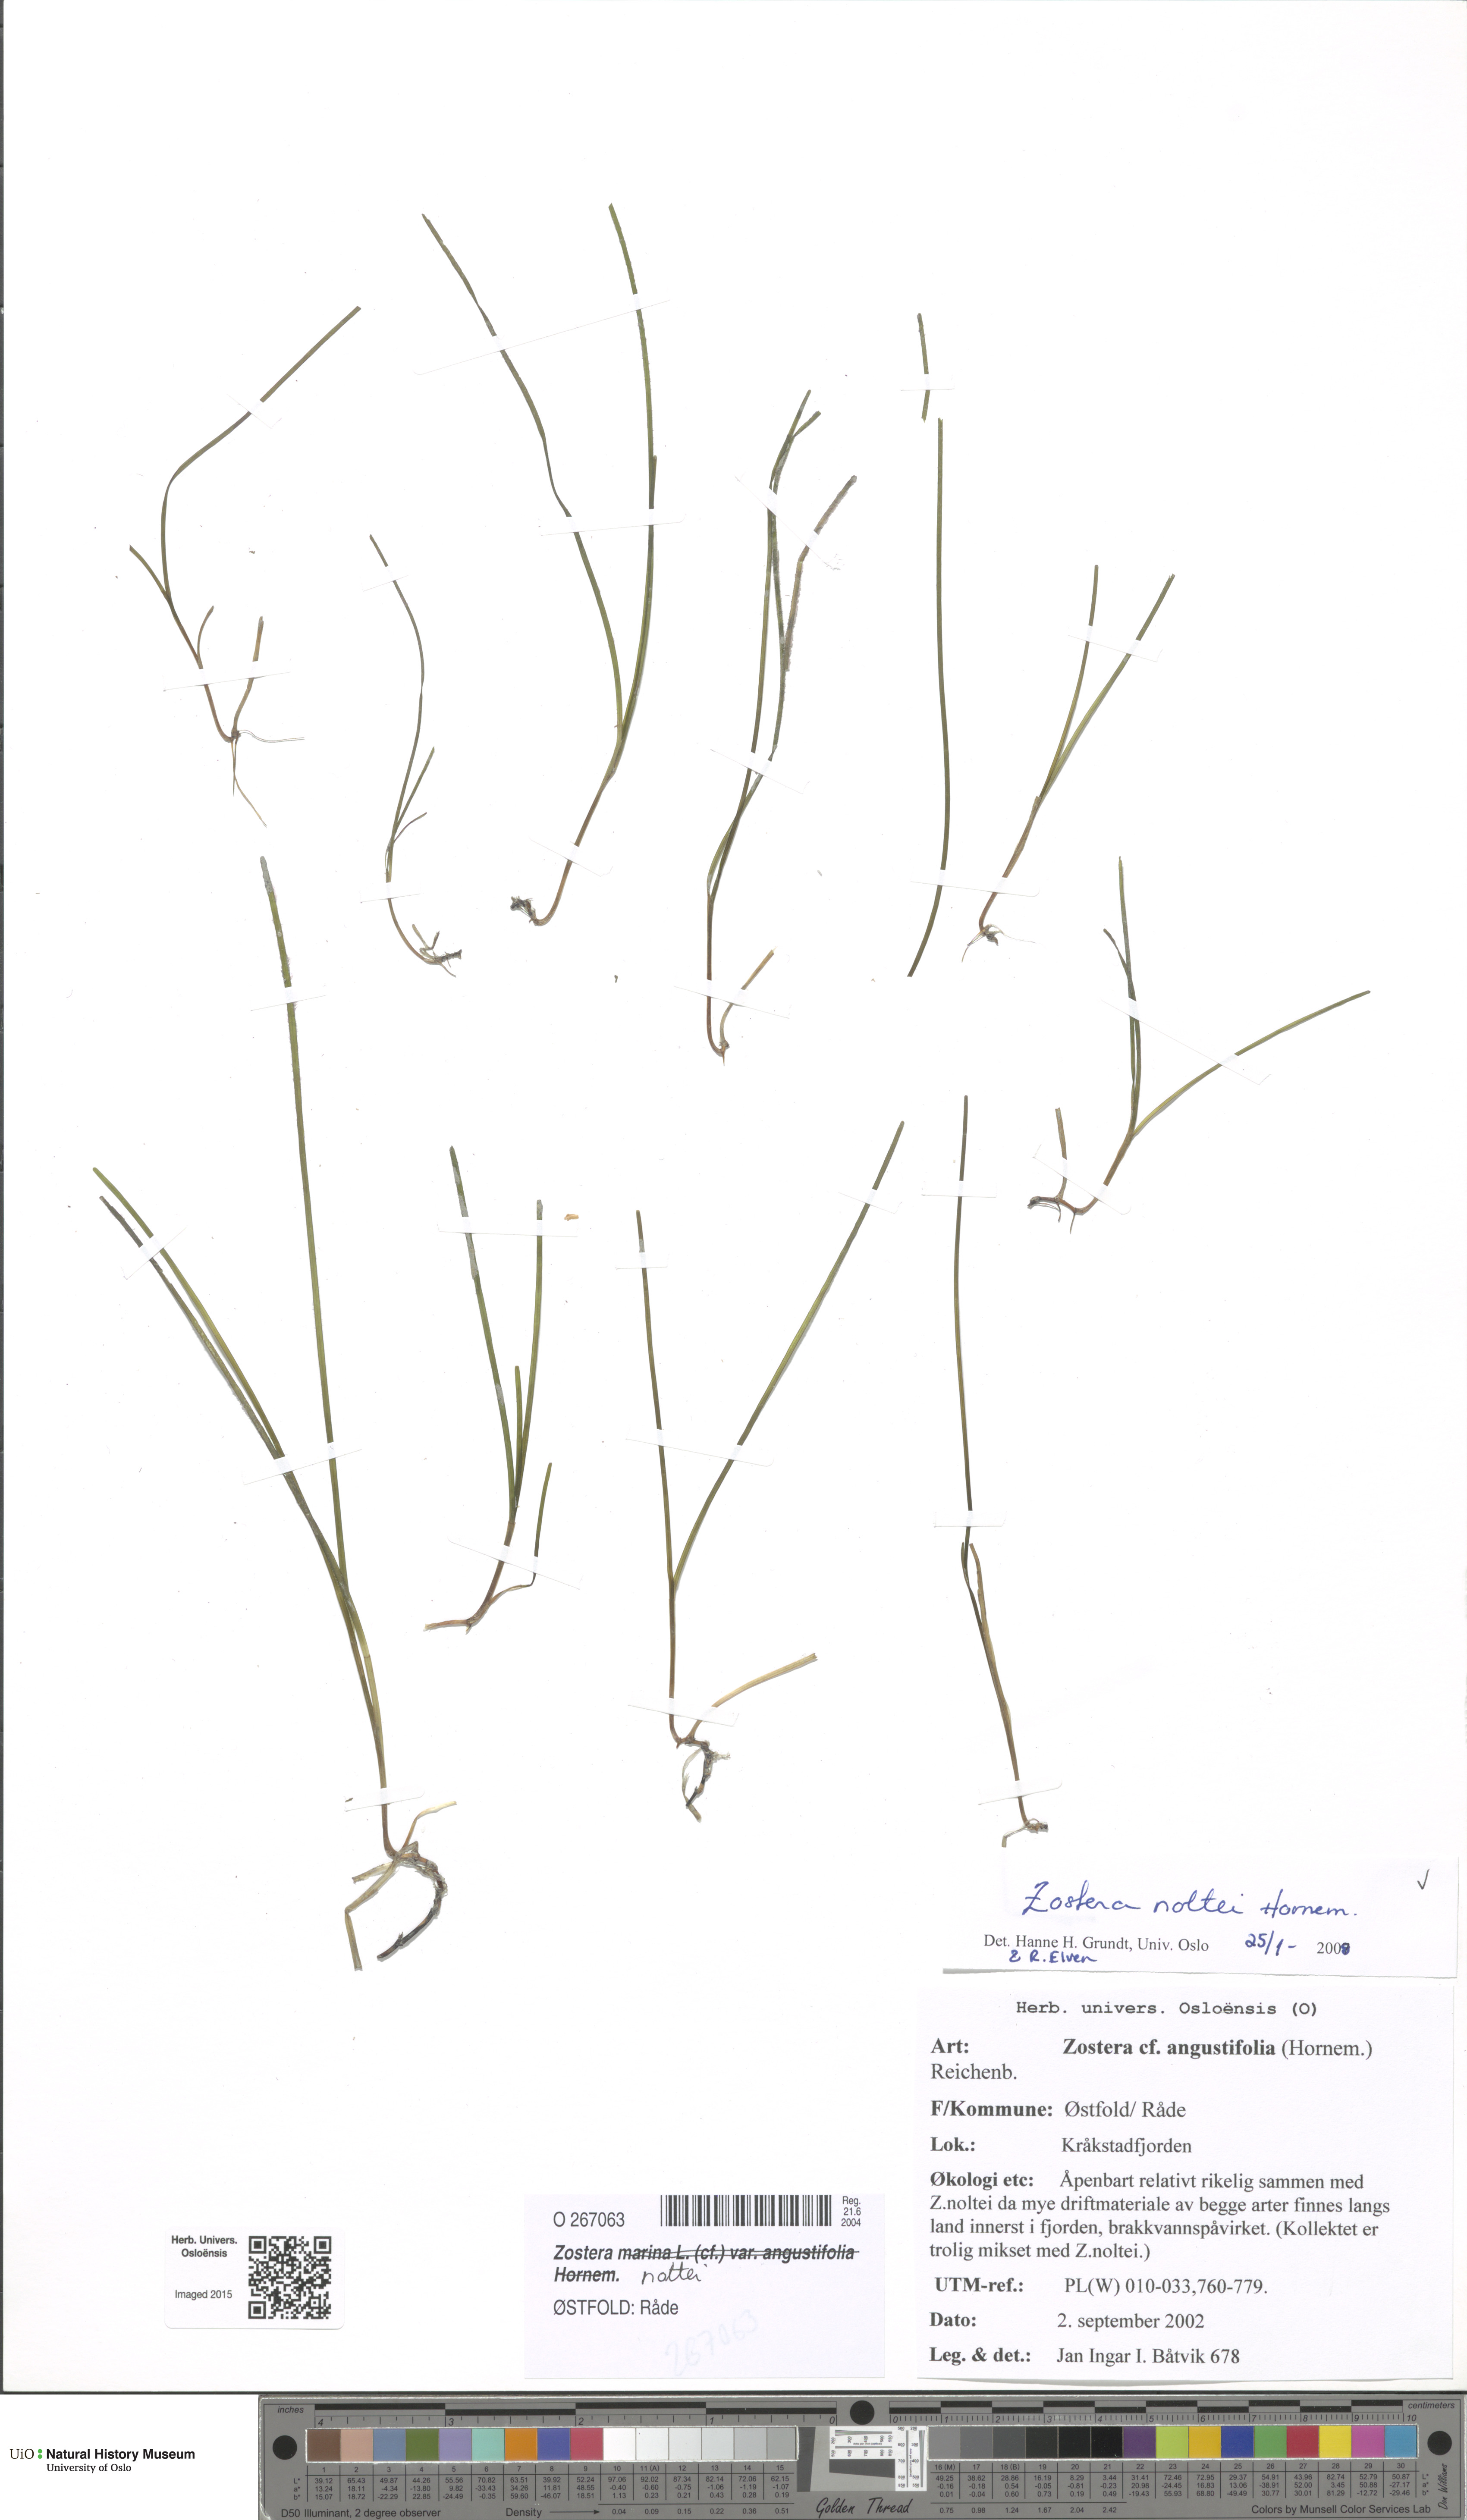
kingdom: Plantae
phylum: Tracheophyta
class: Liliopsida
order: Alismatales
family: Zosteraceae
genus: Zostera
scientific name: Zostera noltii
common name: Dwarf eelgrass
